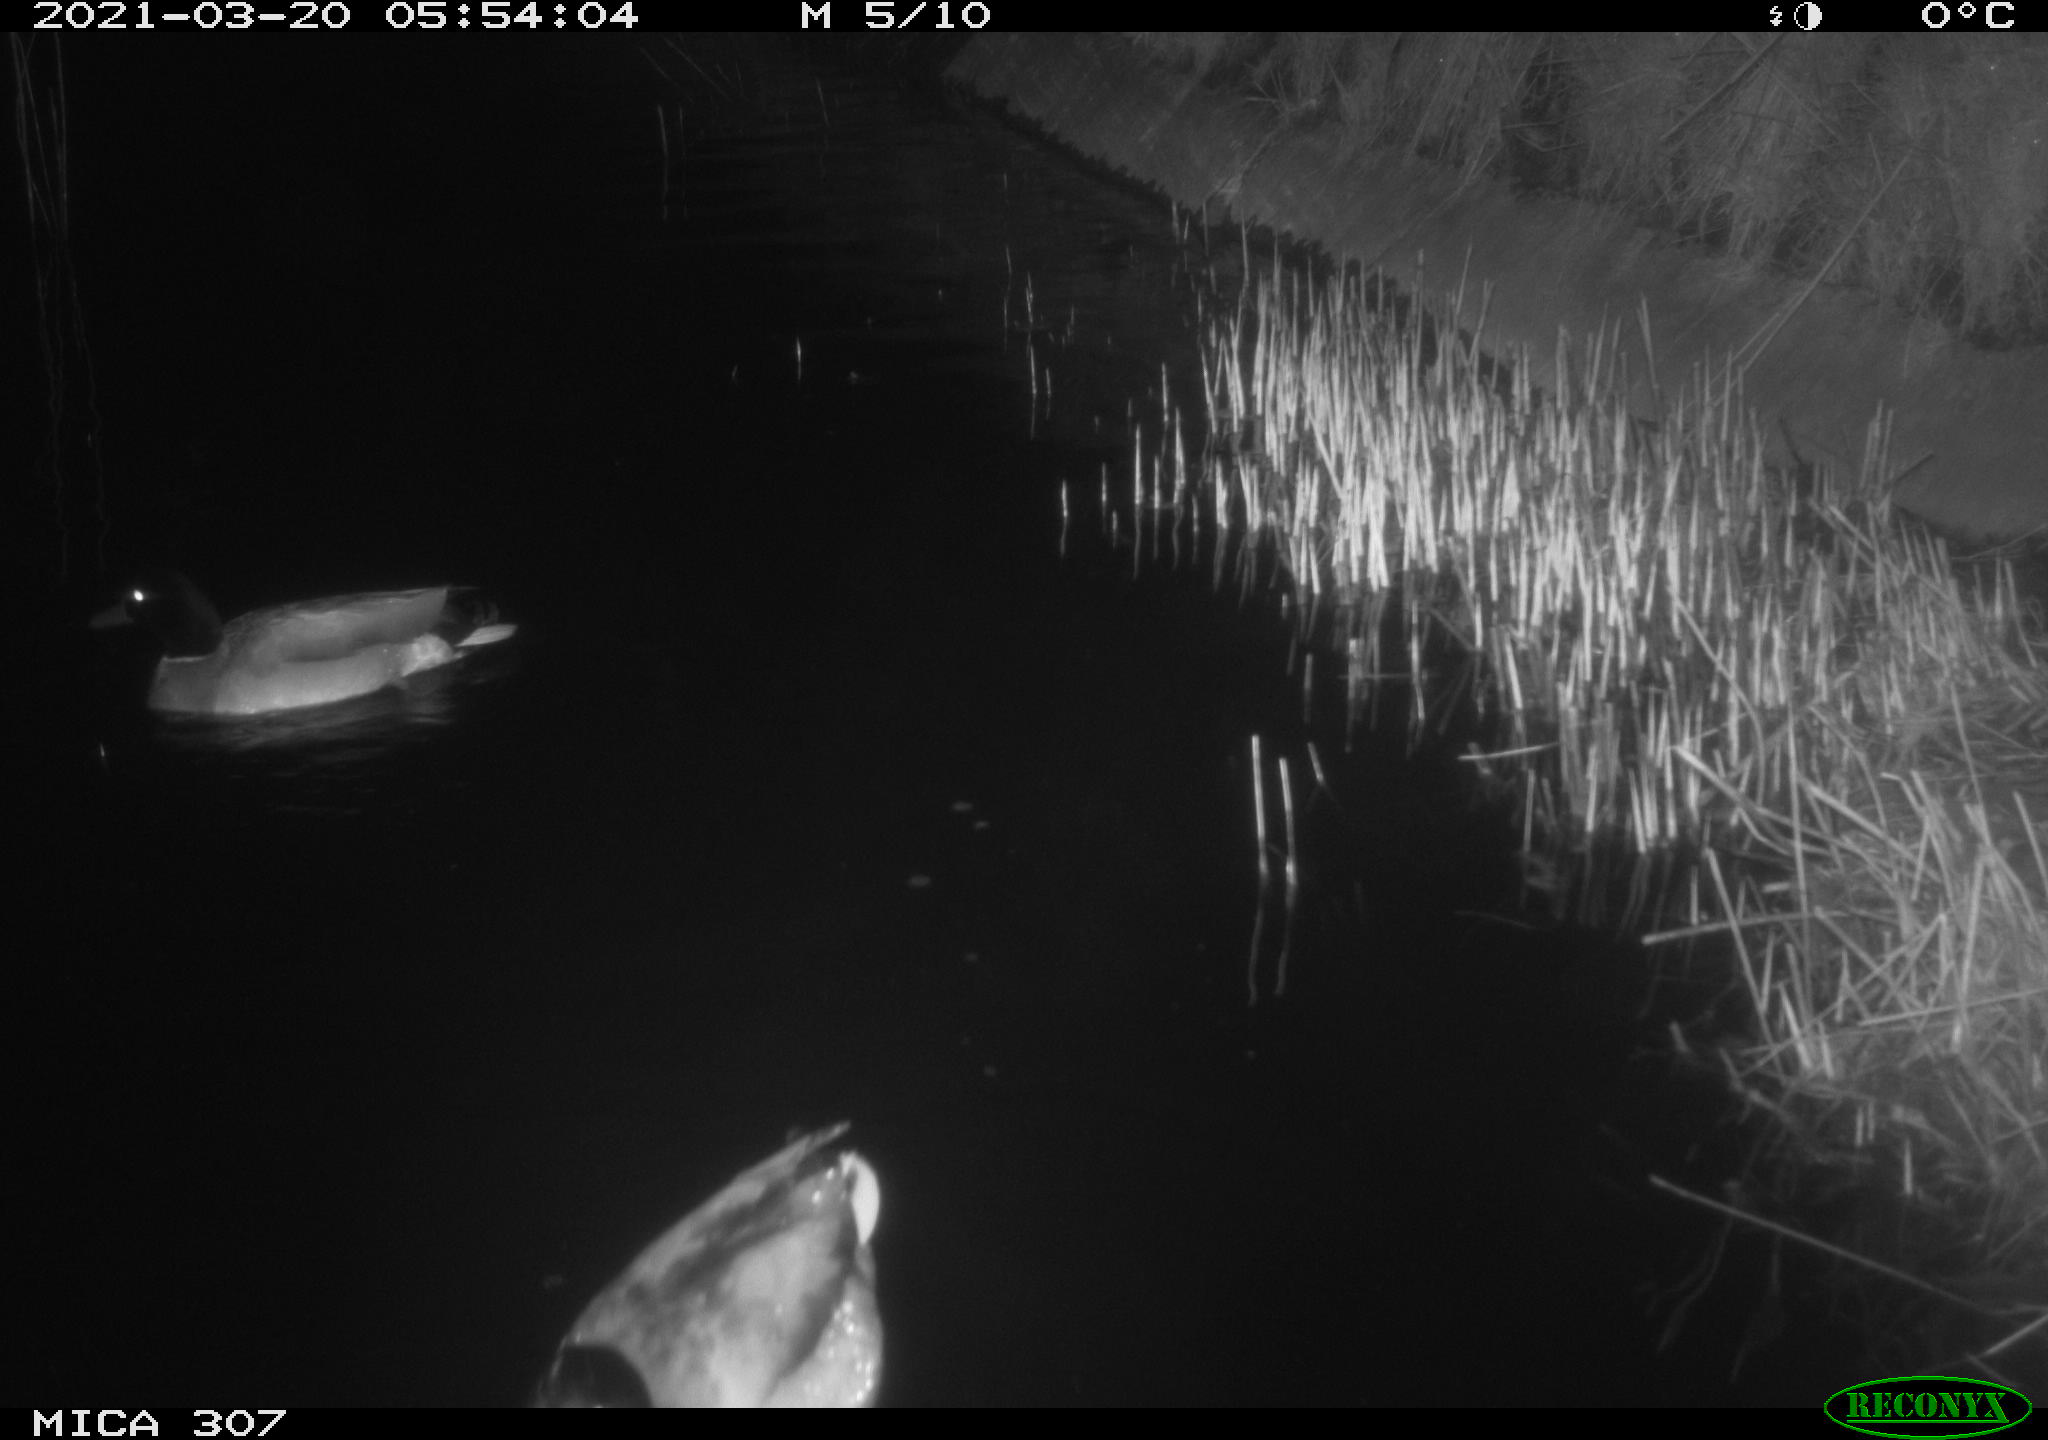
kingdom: Animalia
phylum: Chordata
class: Aves
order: Anseriformes
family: Anatidae
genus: Anas
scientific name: Anas platyrhynchos
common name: Mallard
